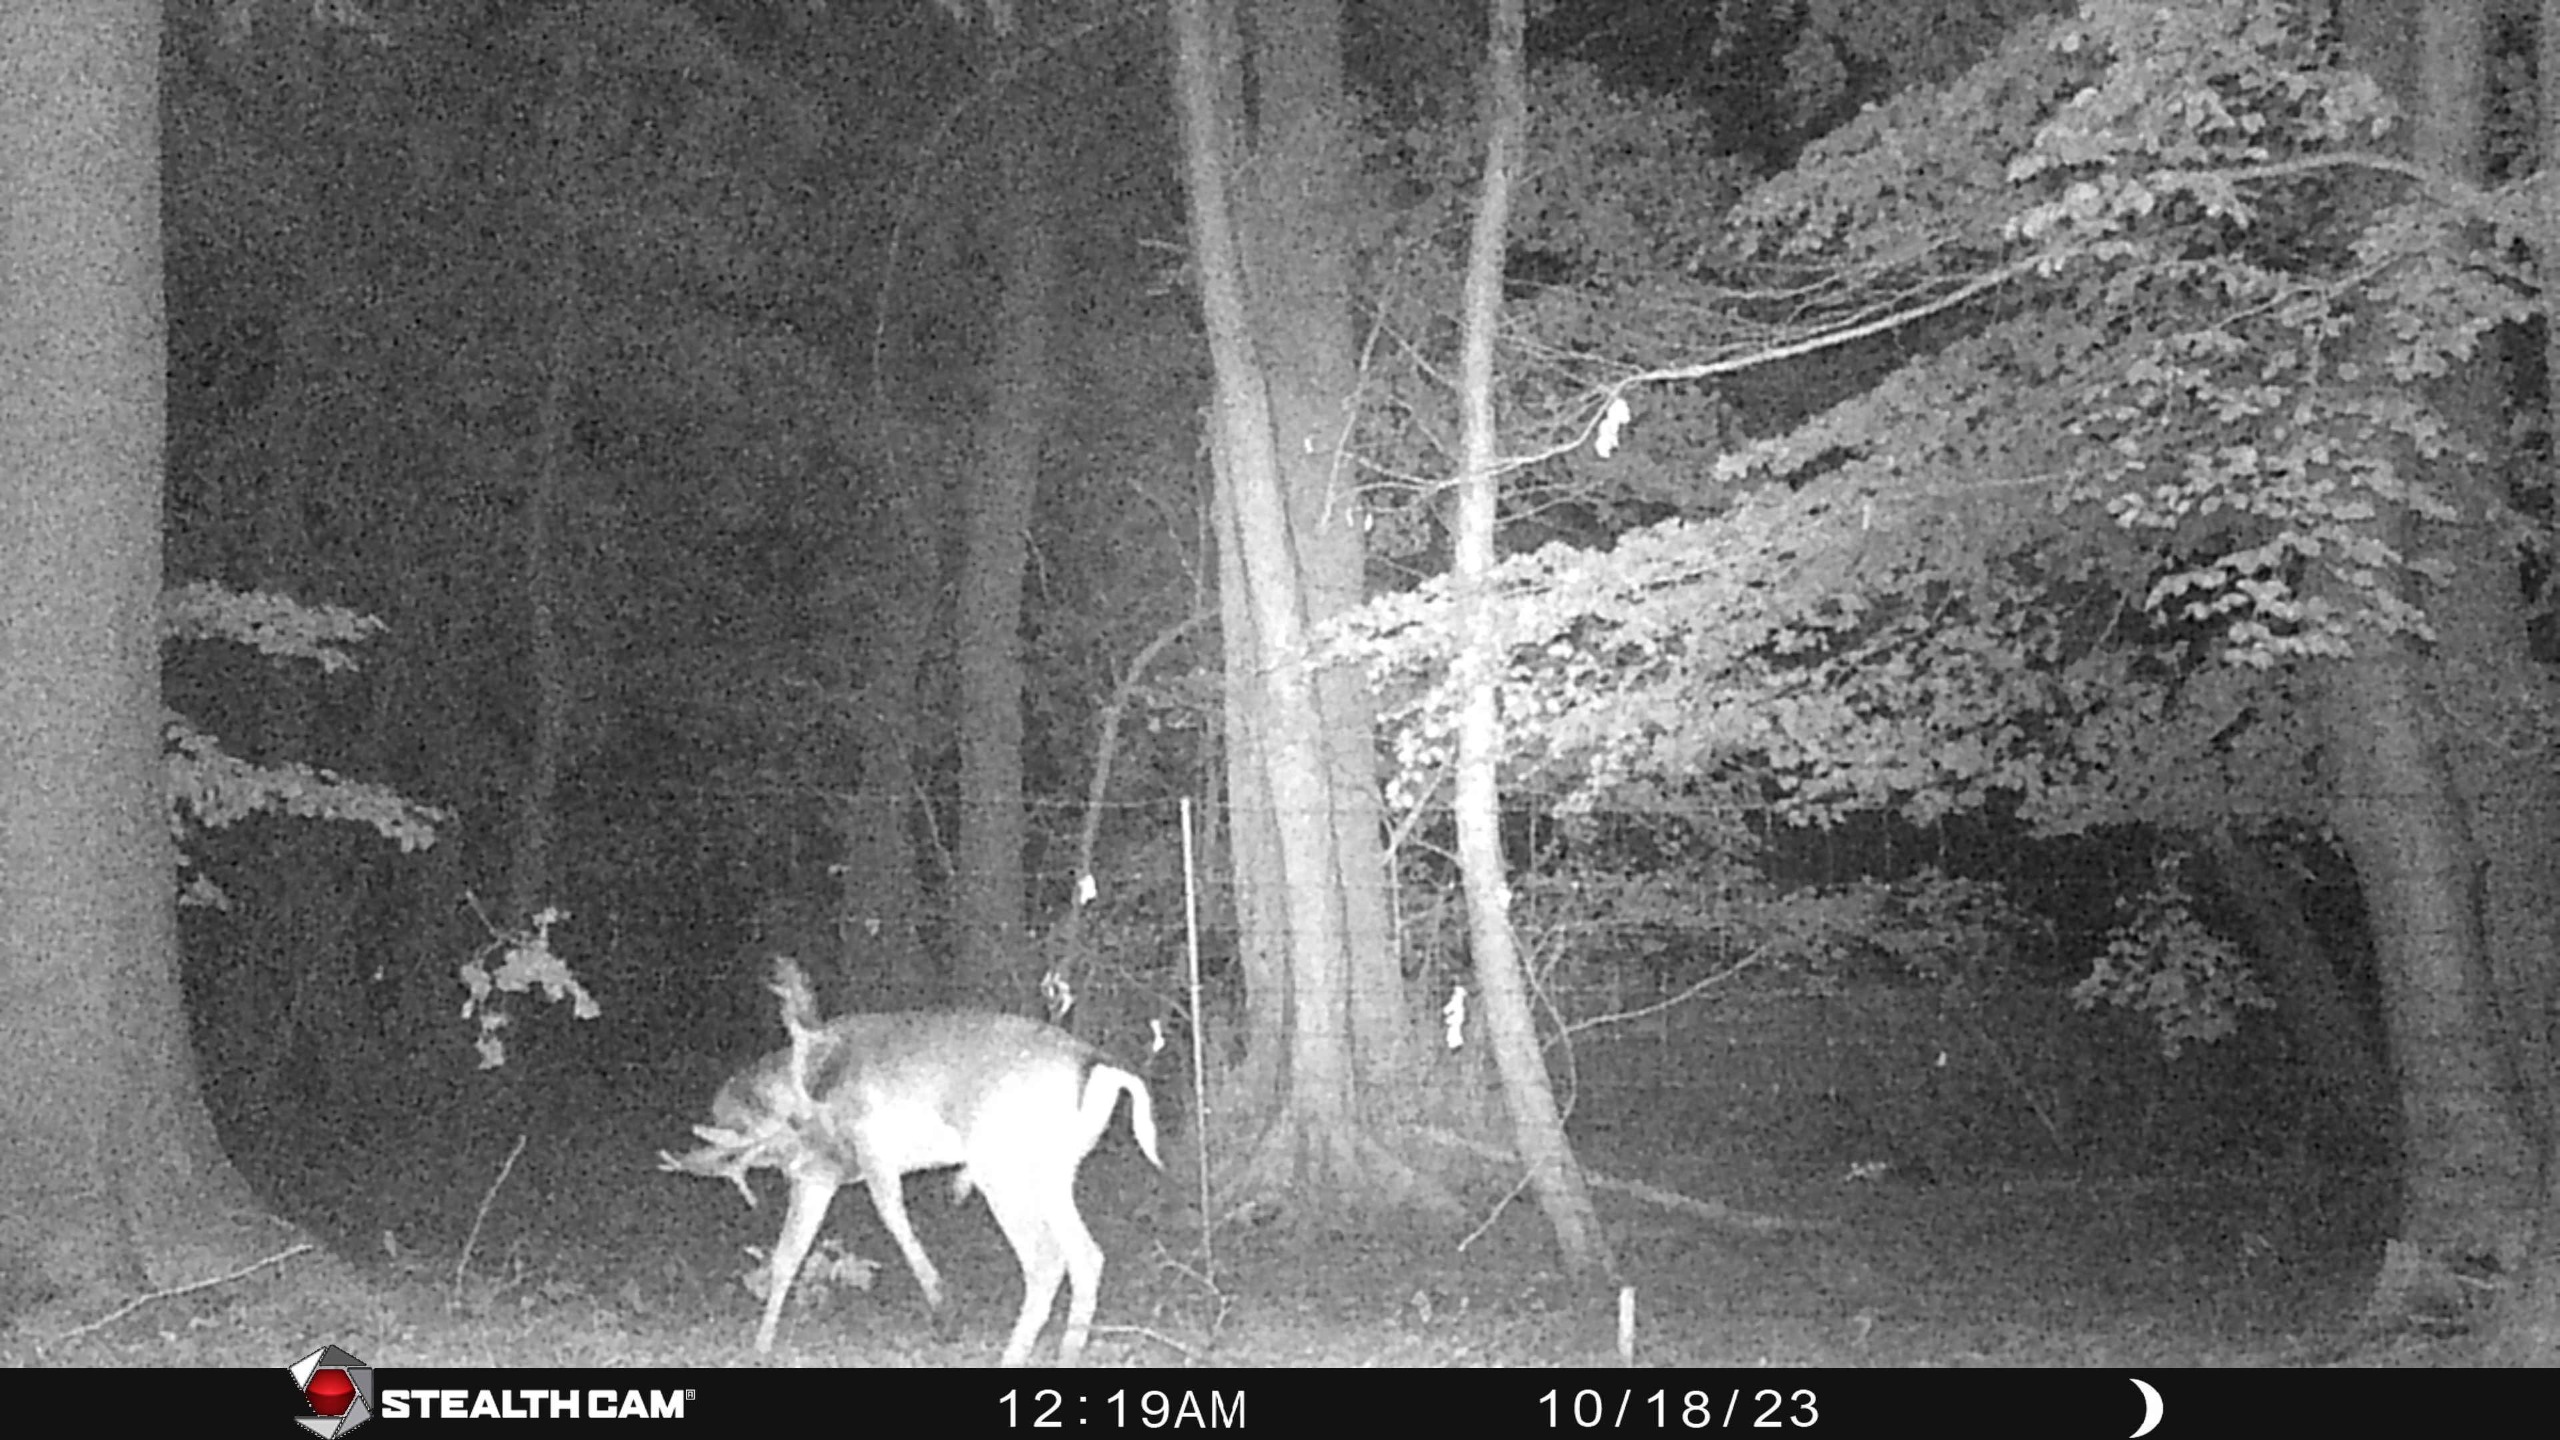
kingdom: Animalia
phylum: Chordata
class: Mammalia
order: Artiodactyla
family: Cervidae
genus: Dama
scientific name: Dama dama
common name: Dådyr
